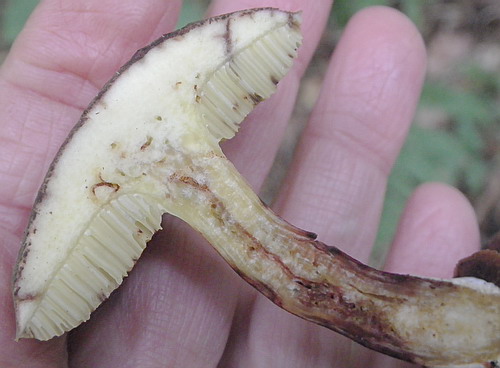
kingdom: Fungi
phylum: Basidiomycota
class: Agaricomycetes
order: Boletales
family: Boletaceae
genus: Xerocomellus
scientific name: Xerocomellus chrysenteron
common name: rødsprukken rørhat
